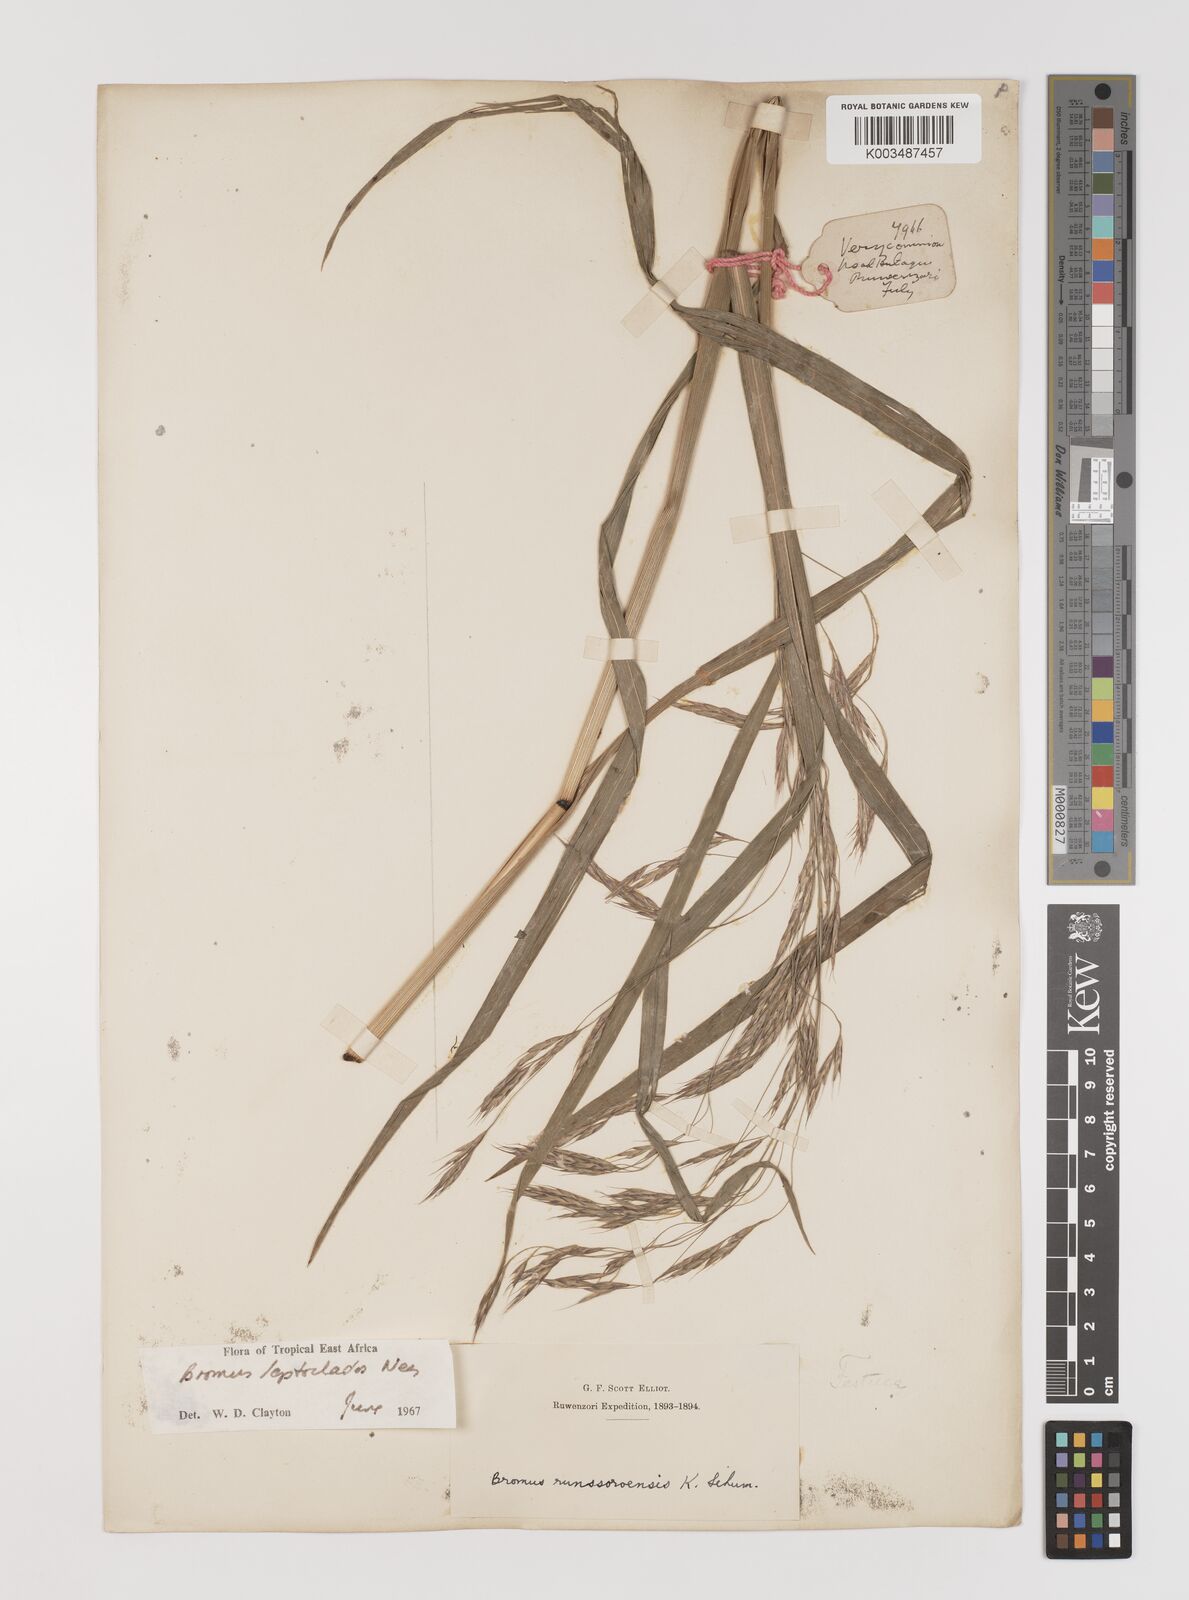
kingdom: Plantae
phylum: Tracheophyta
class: Liliopsida
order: Poales
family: Poaceae
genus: Bromus
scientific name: Bromus leptoclados
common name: Mountain bromegrass
